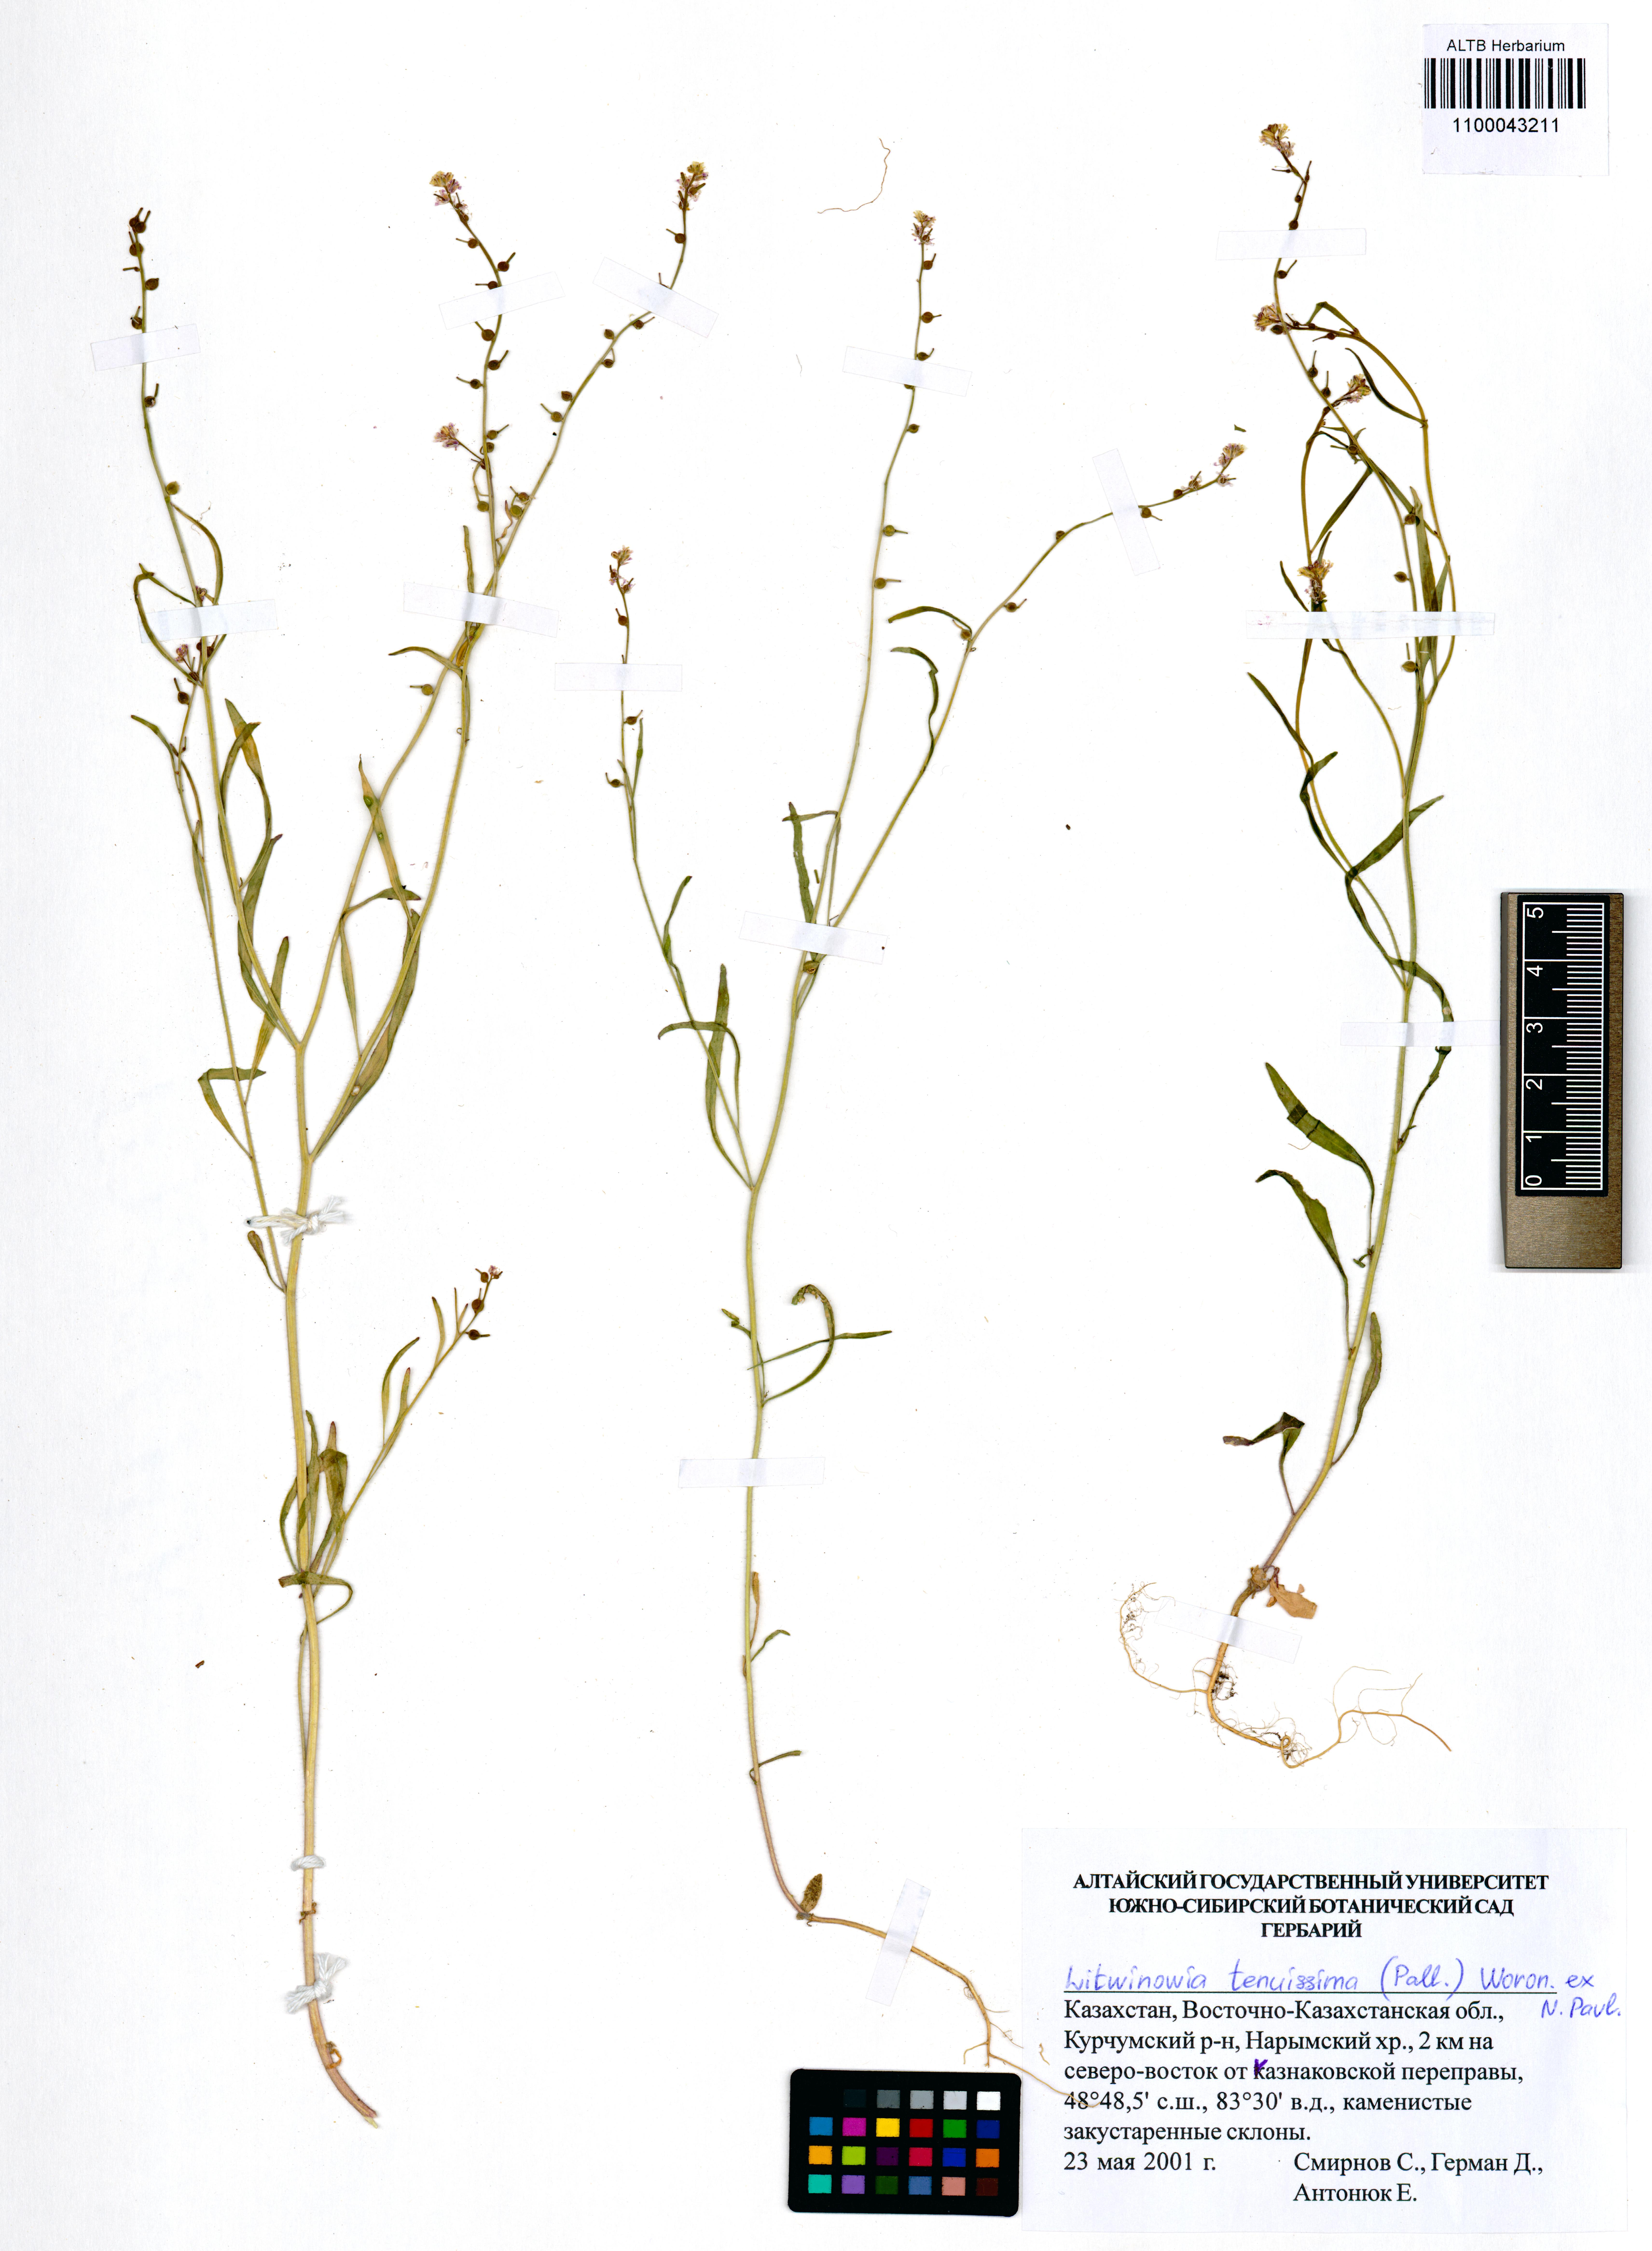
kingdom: Plantae
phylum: Tracheophyta
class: Magnoliopsida
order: Brassicales
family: Brassicaceae
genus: Litwinowia
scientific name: Litwinowia tenuissima
